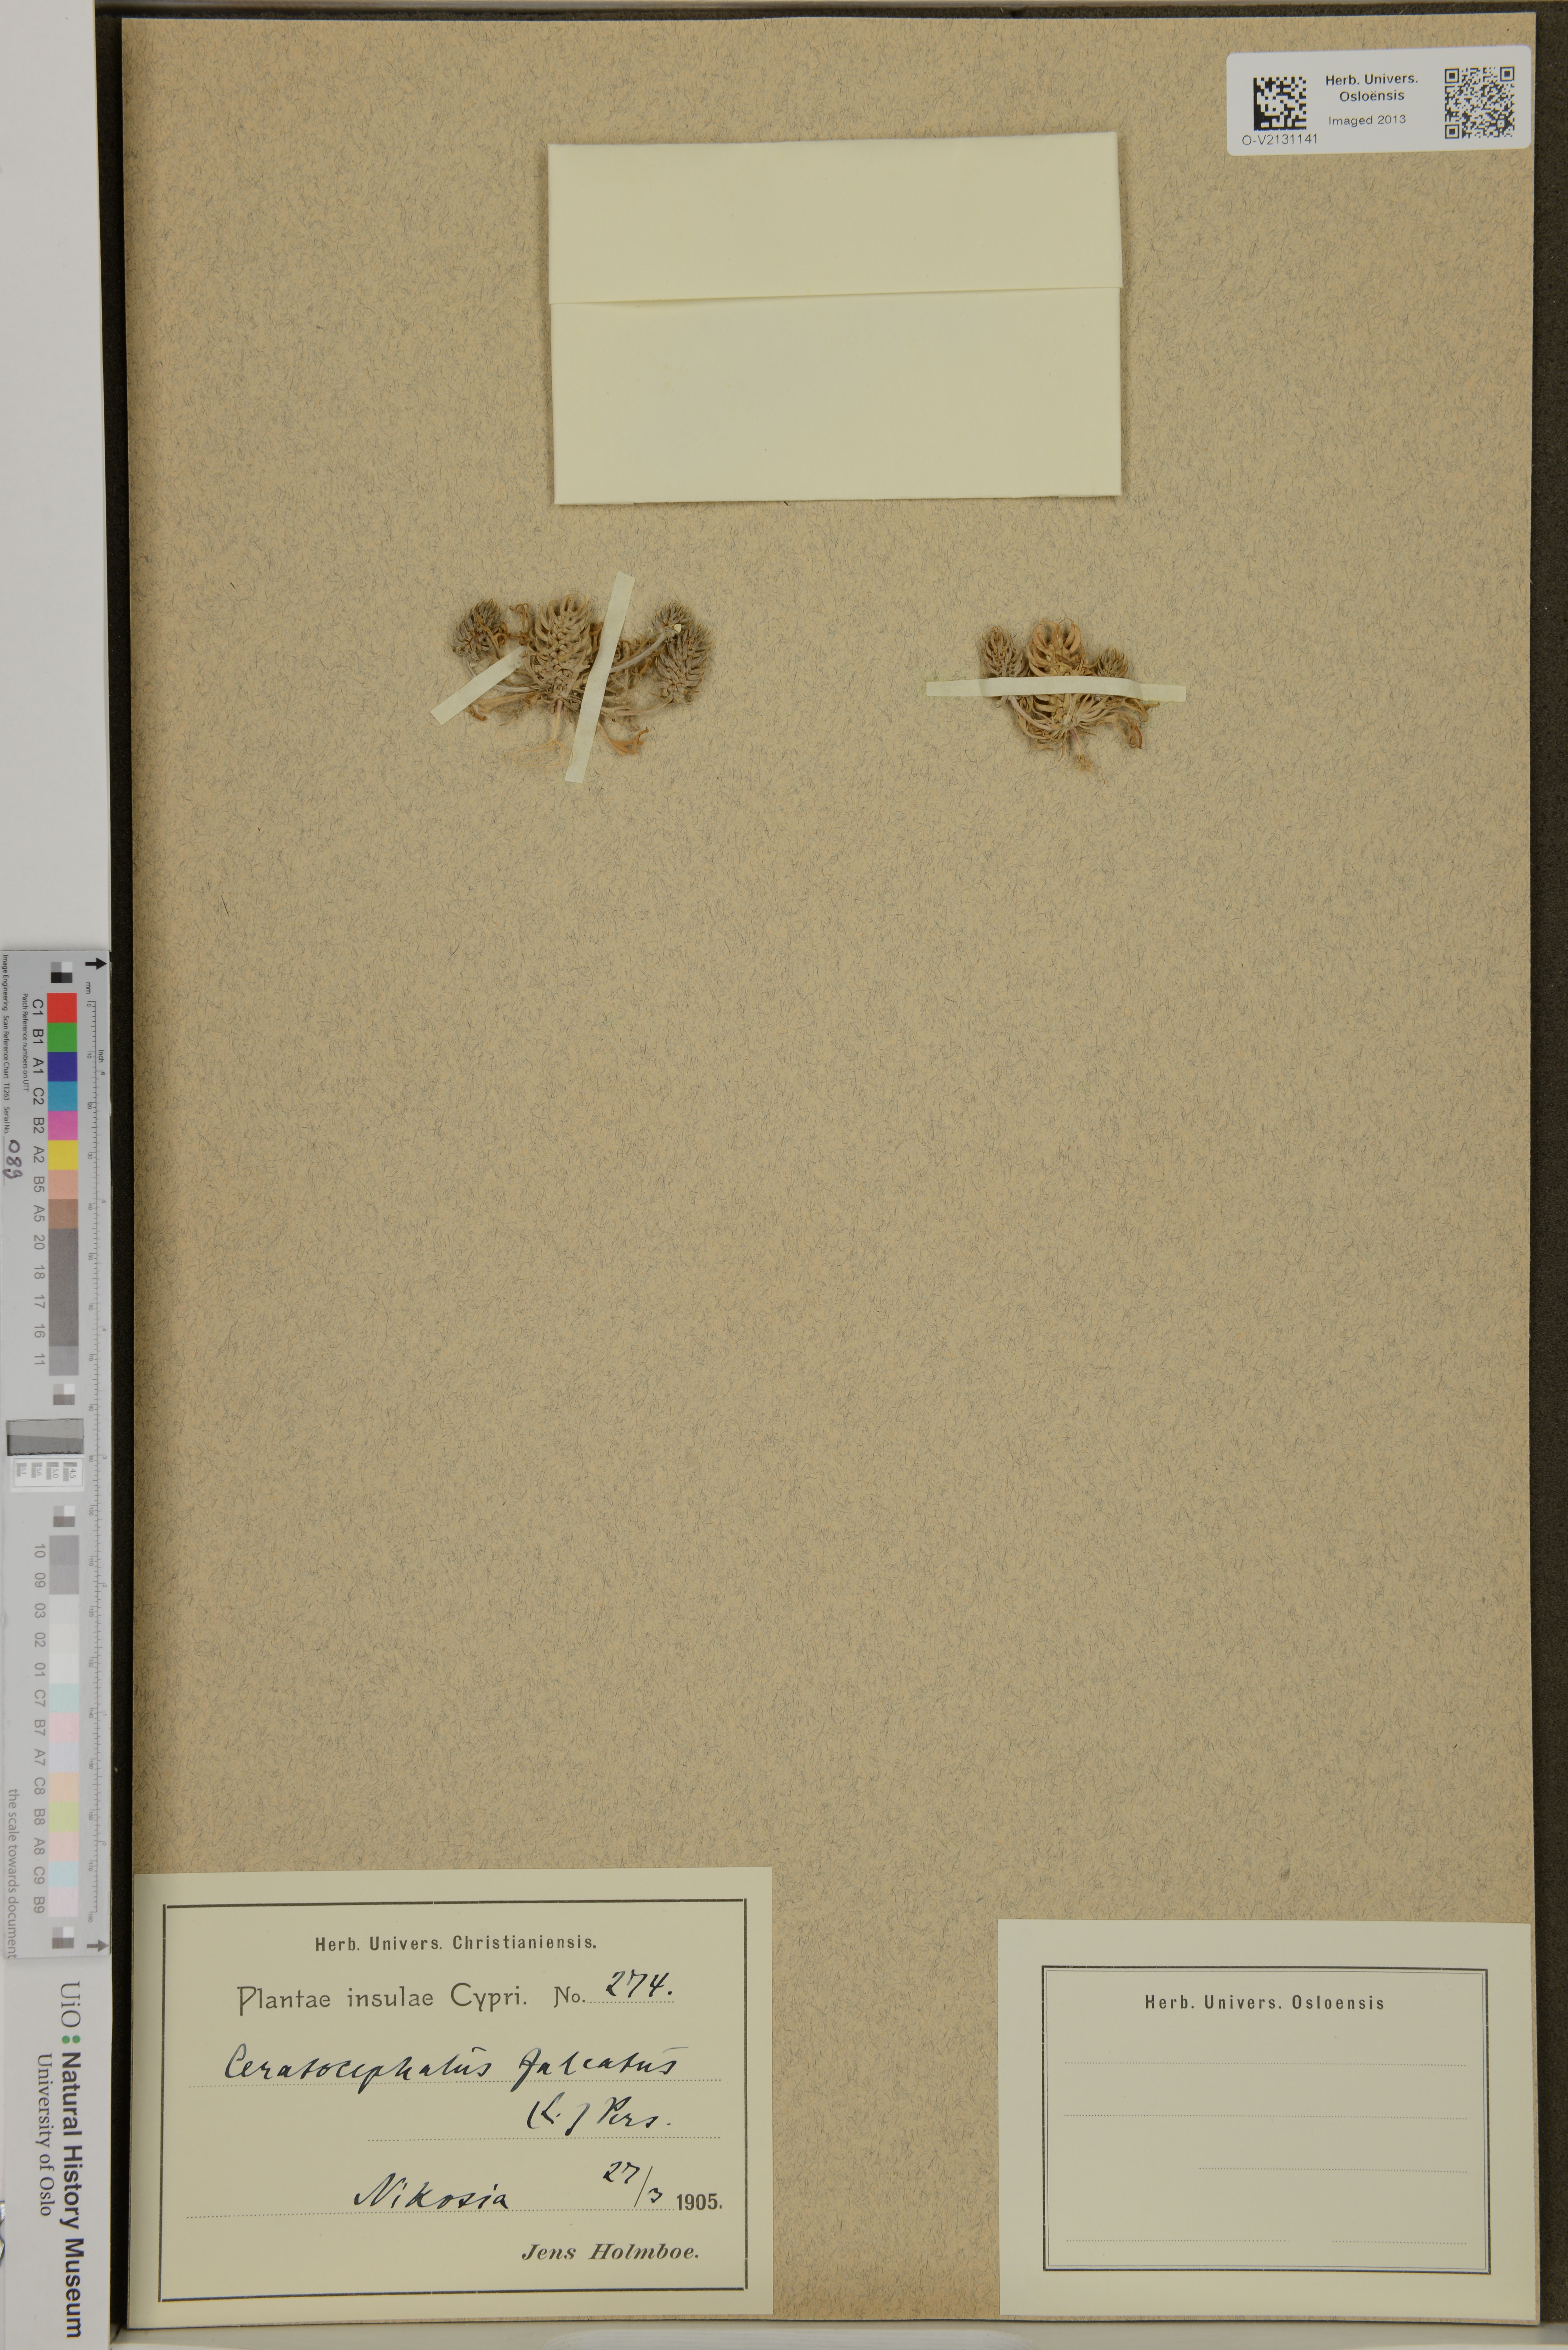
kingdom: Plantae
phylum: Tracheophyta
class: Magnoliopsida
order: Asterales
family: Asteraceae
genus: Achillea
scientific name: Achillea falcata
